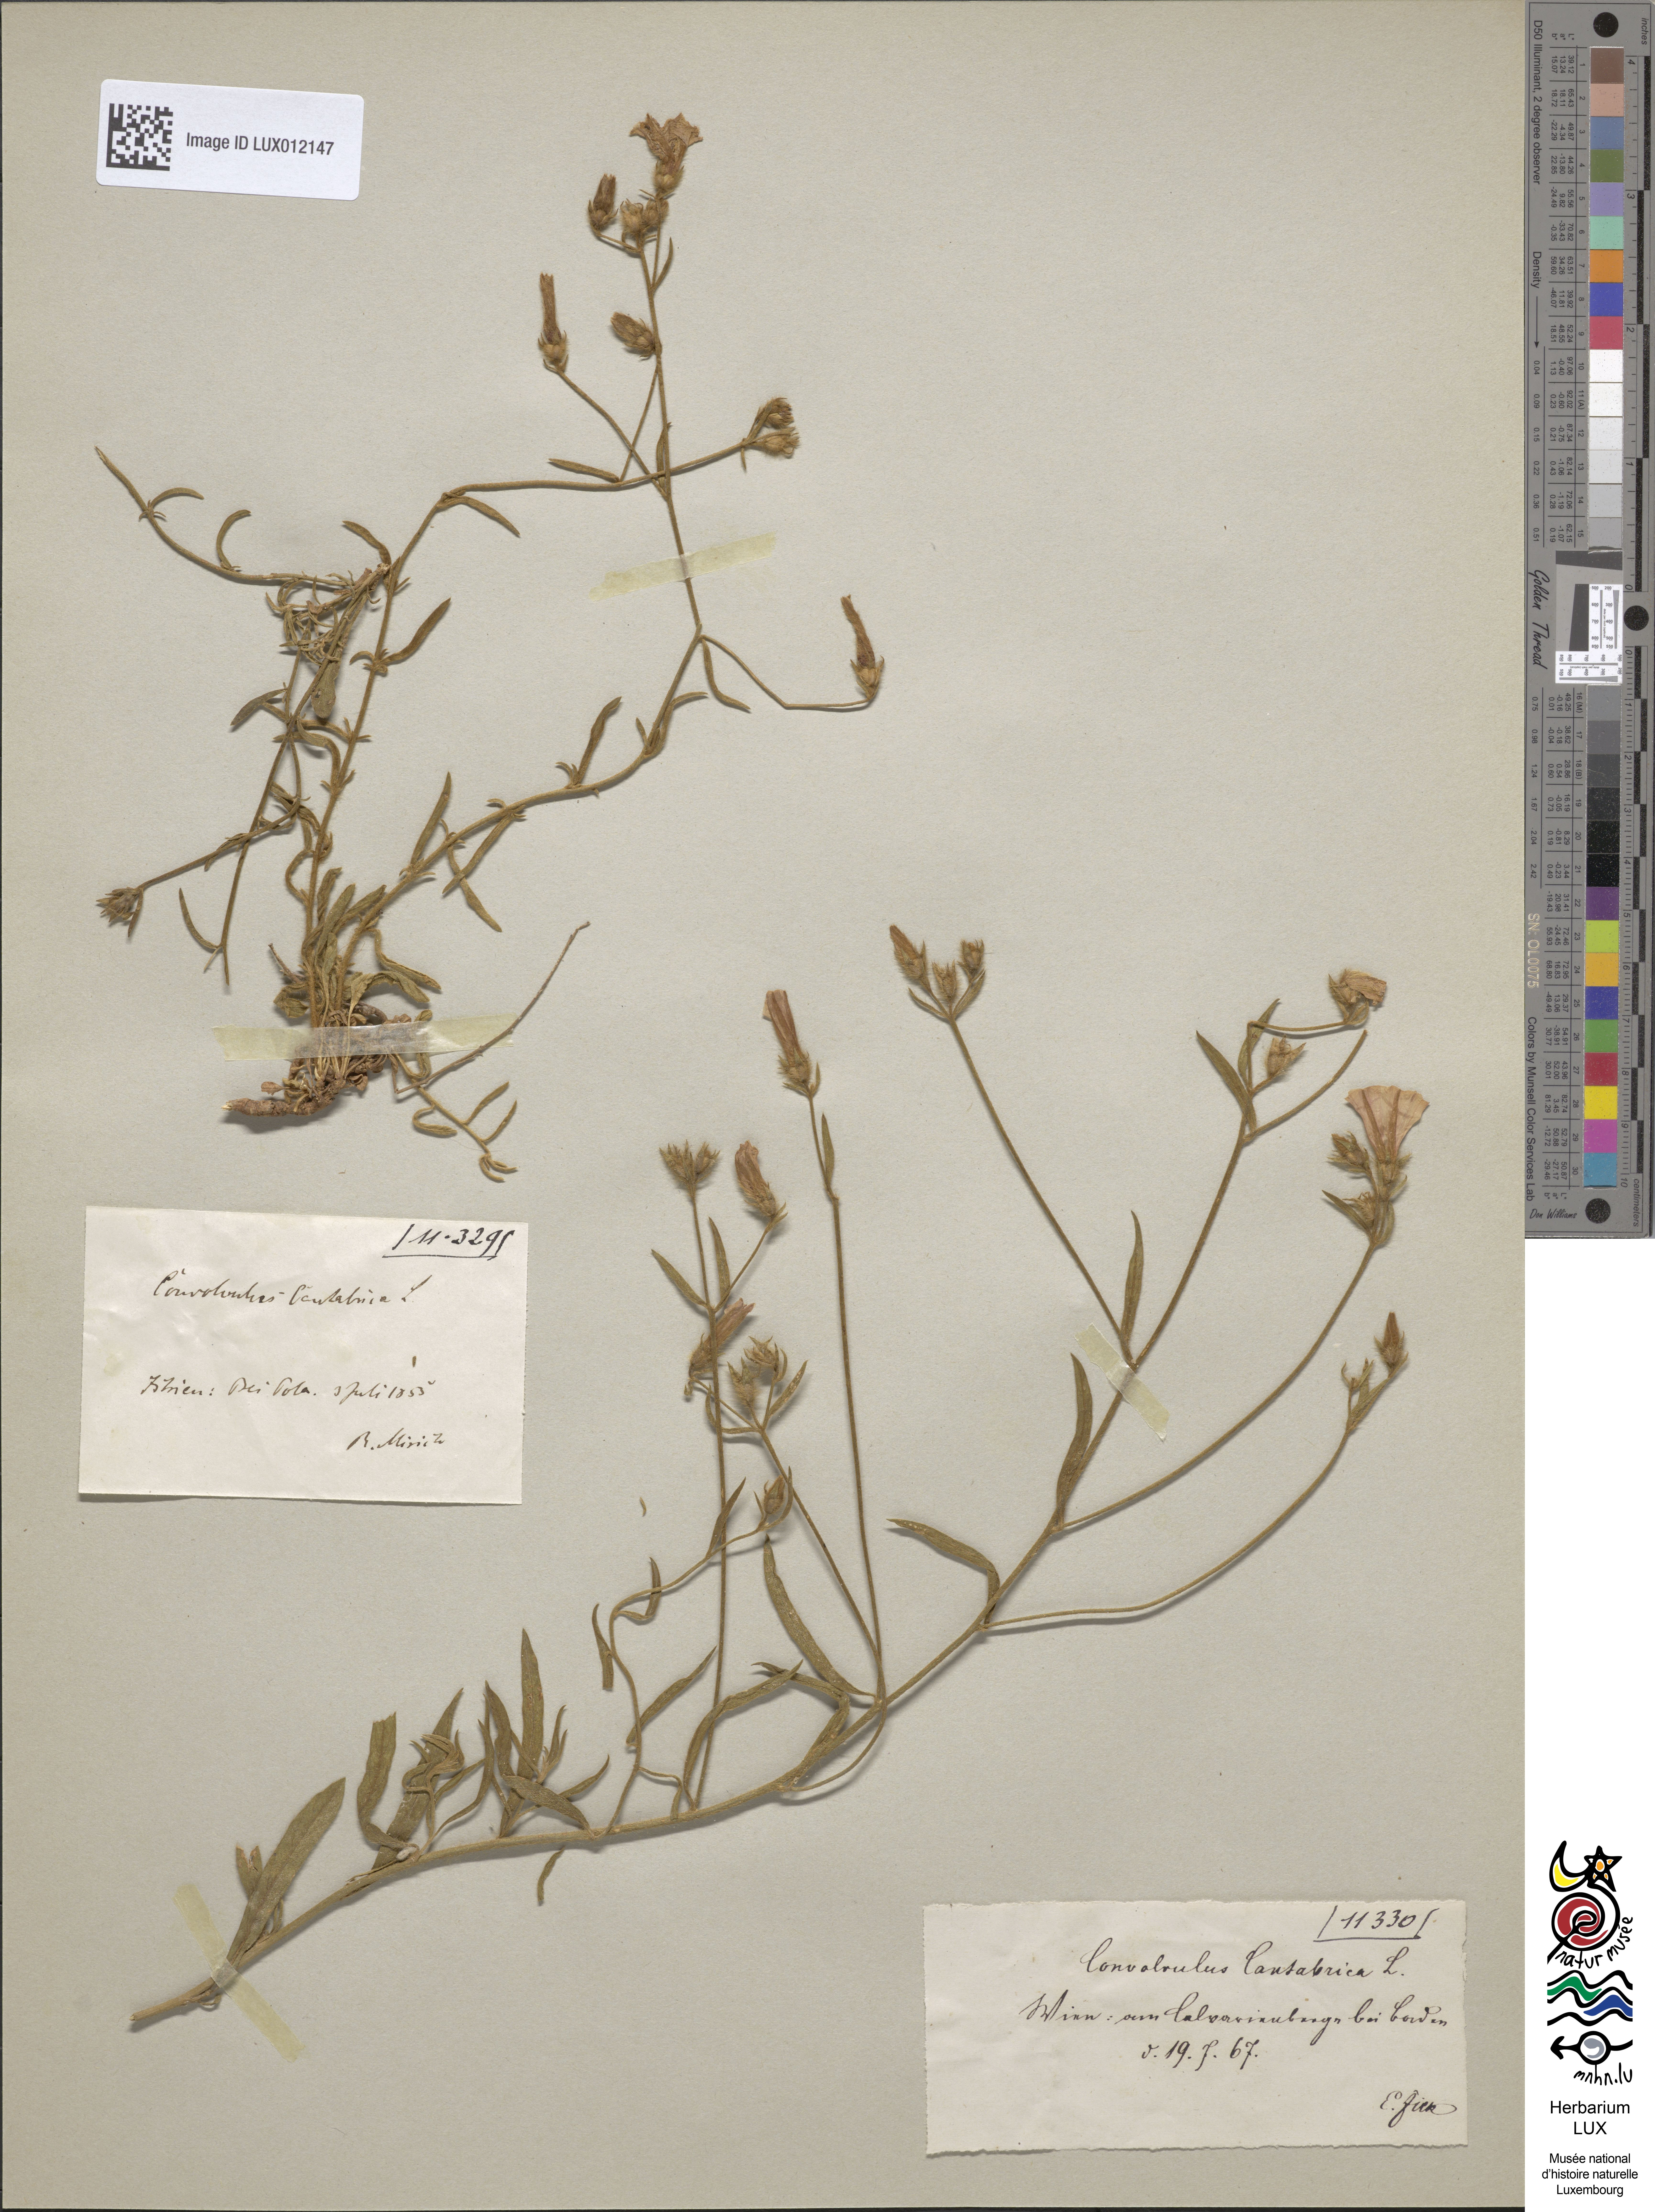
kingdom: Plantae
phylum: Tracheophyta
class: Magnoliopsida
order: Solanales
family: Convolvulaceae
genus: Convolvulus
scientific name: Convolvulus cantabrica
